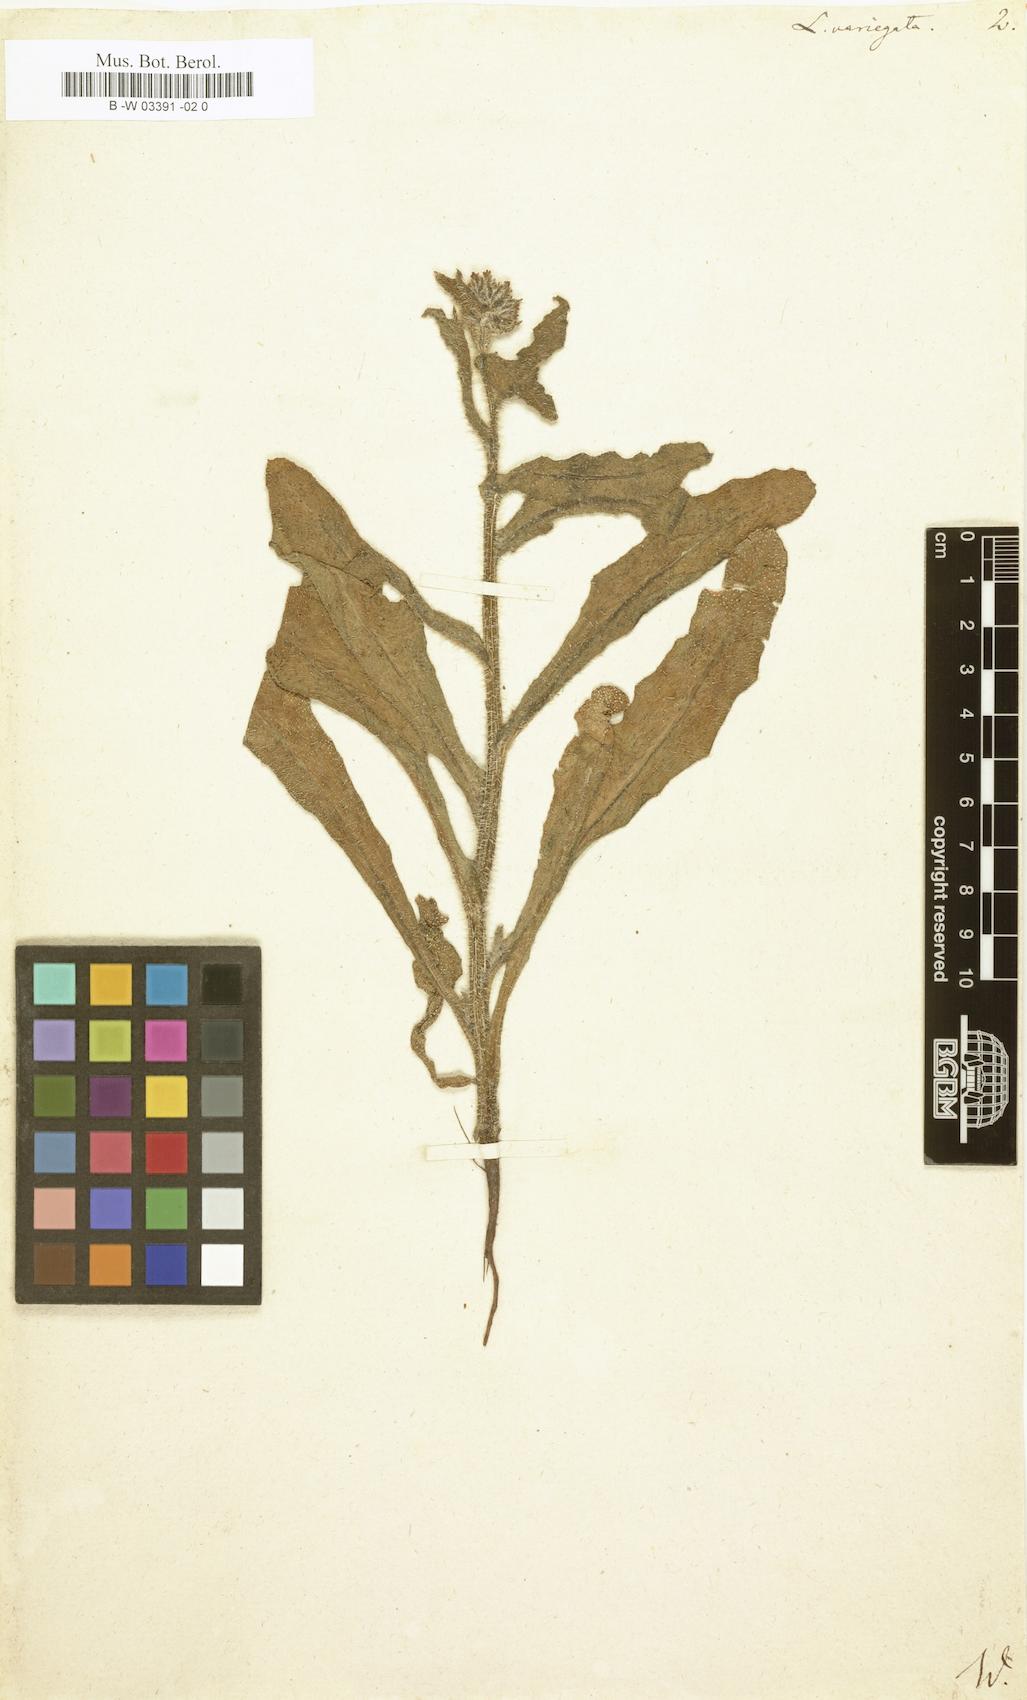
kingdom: Plantae
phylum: Tracheophyta
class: Magnoliopsida
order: Boraginales
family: Boraginaceae
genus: Anchusella
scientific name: Anchusella variegata
